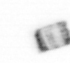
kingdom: Animalia
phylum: Arthropoda
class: Copepoda
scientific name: Copepoda
